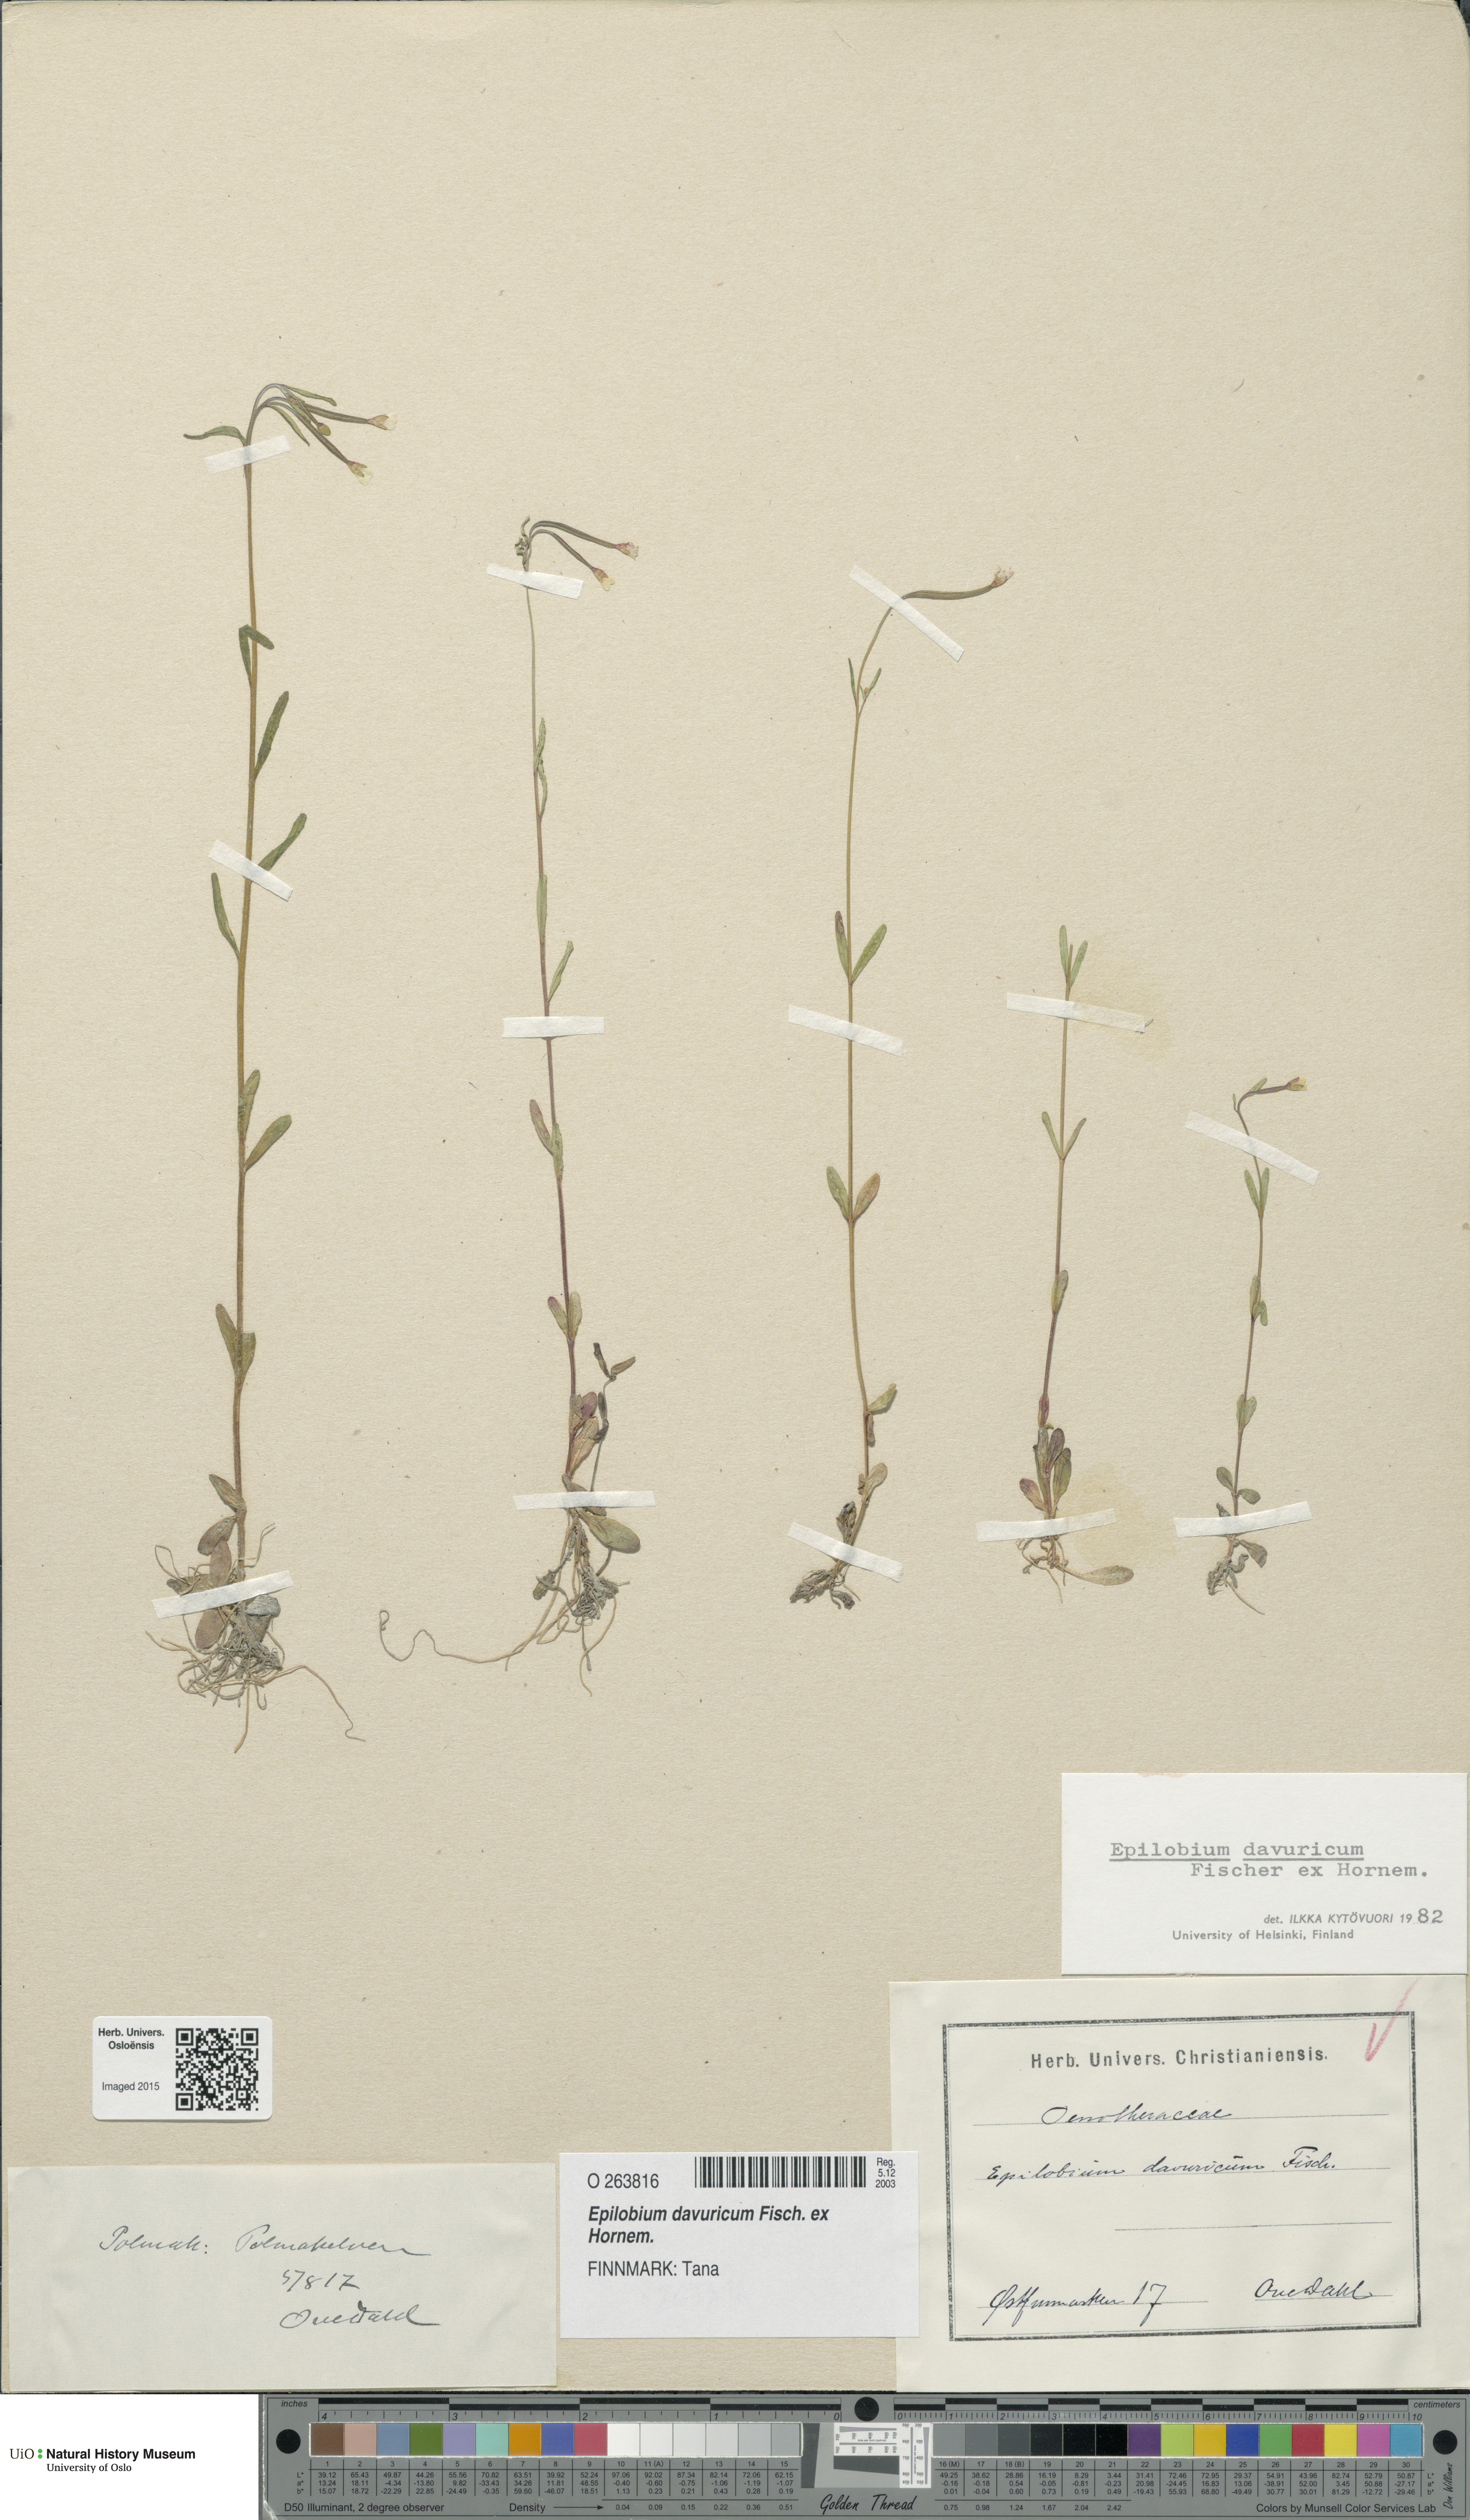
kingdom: Plantae
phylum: Tracheophyta
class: Magnoliopsida
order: Myrtales
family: Onagraceae
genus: Epilobium
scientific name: Epilobium davuricum
